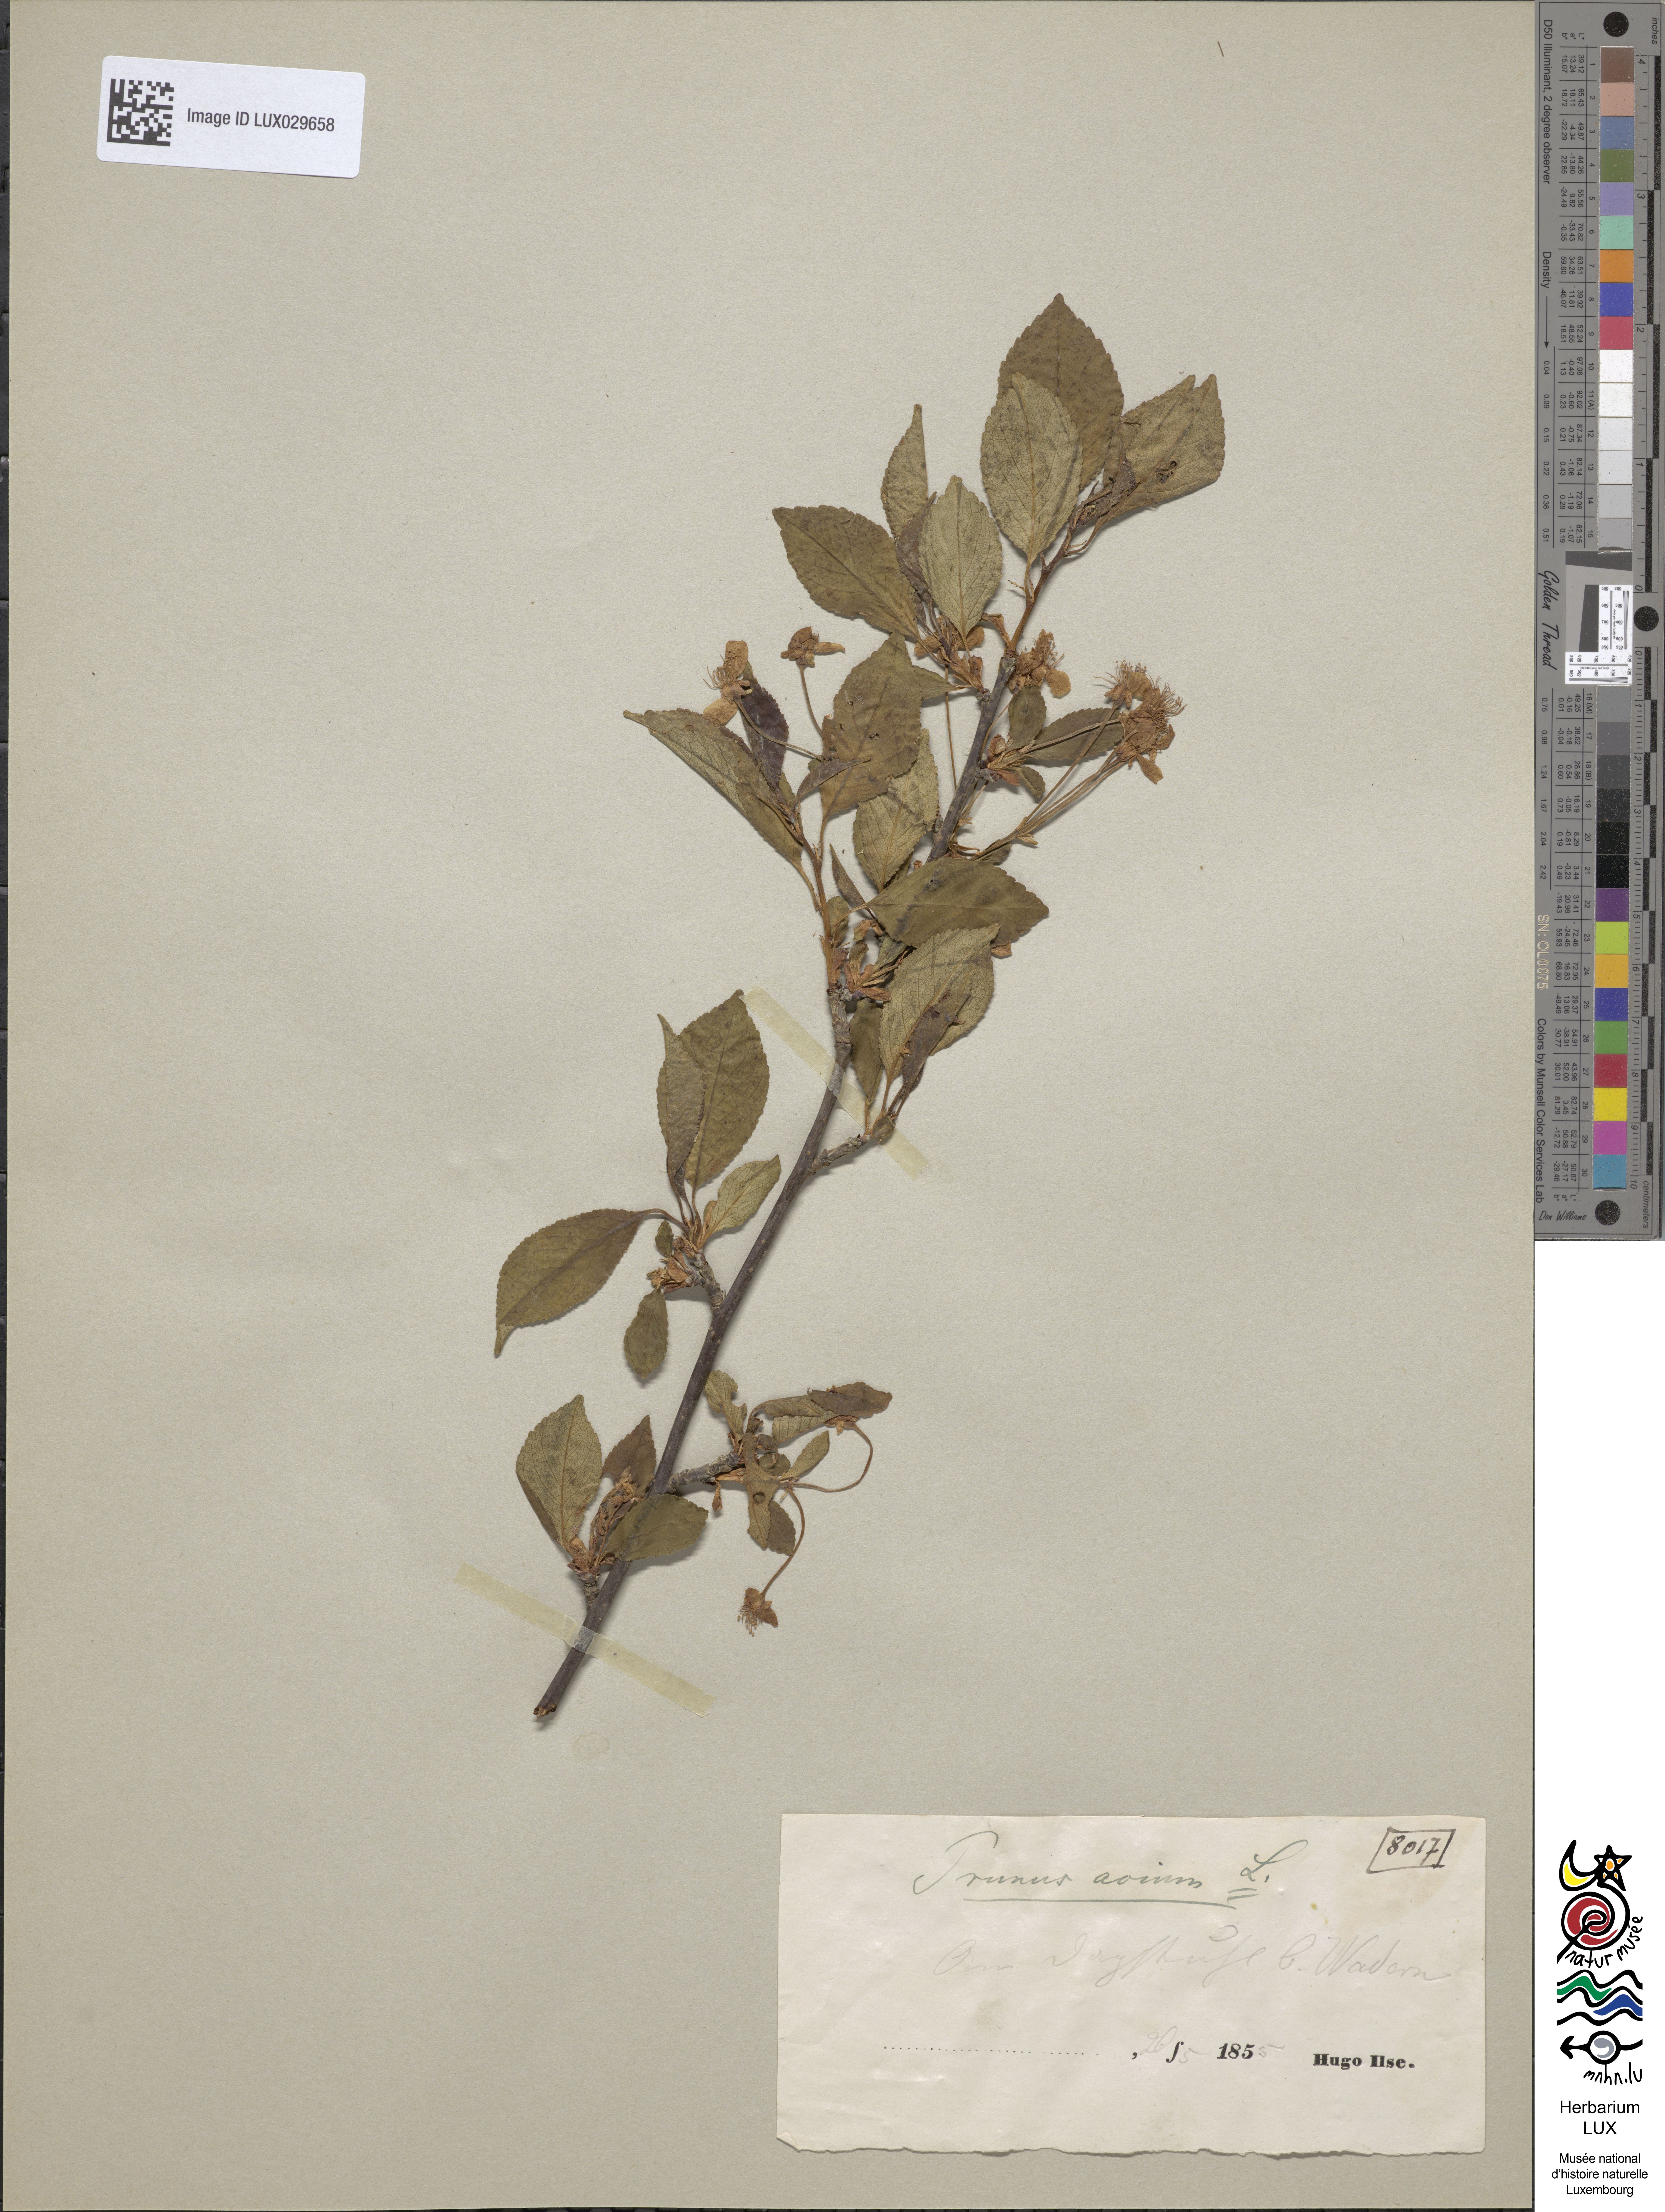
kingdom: Plantae
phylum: Tracheophyta
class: Magnoliopsida
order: Rosales
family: Rosaceae
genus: Prunus
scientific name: Prunus avium
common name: Sweet cherry
